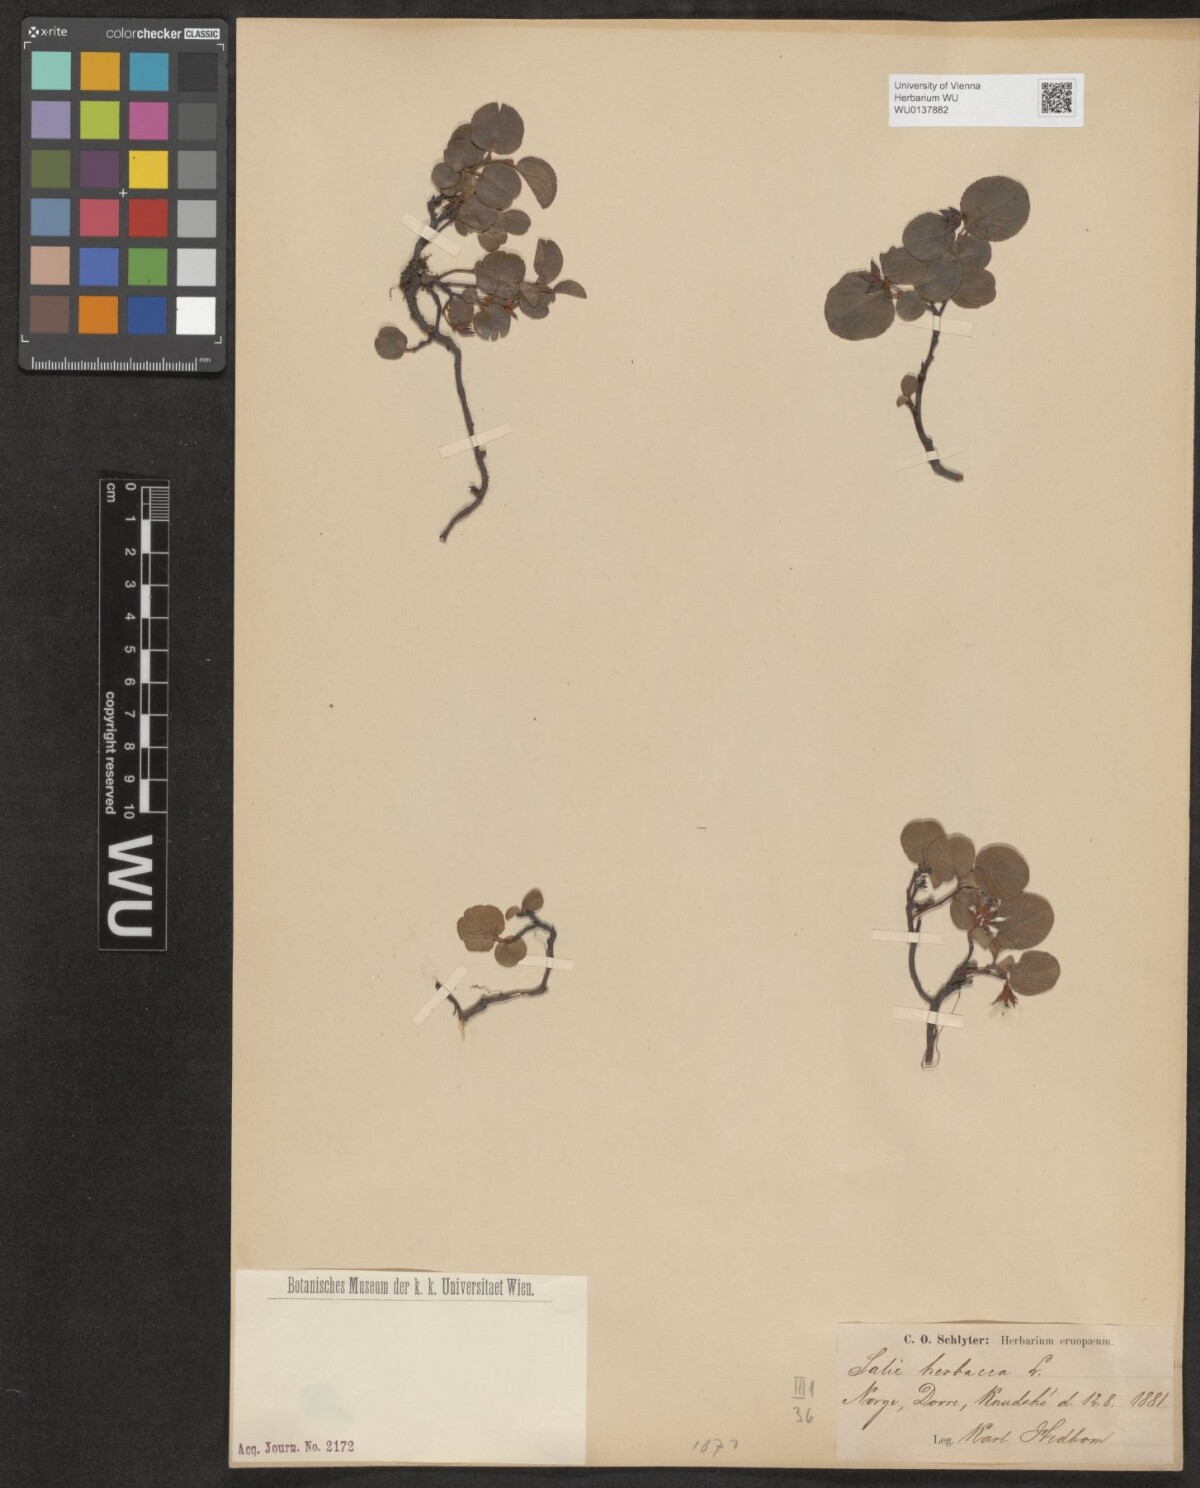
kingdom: Plantae
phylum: Tracheophyta
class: Magnoliopsida
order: Malpighiales
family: Salicaceae
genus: Salix
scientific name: Salix herbacea
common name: Dwarf willow
